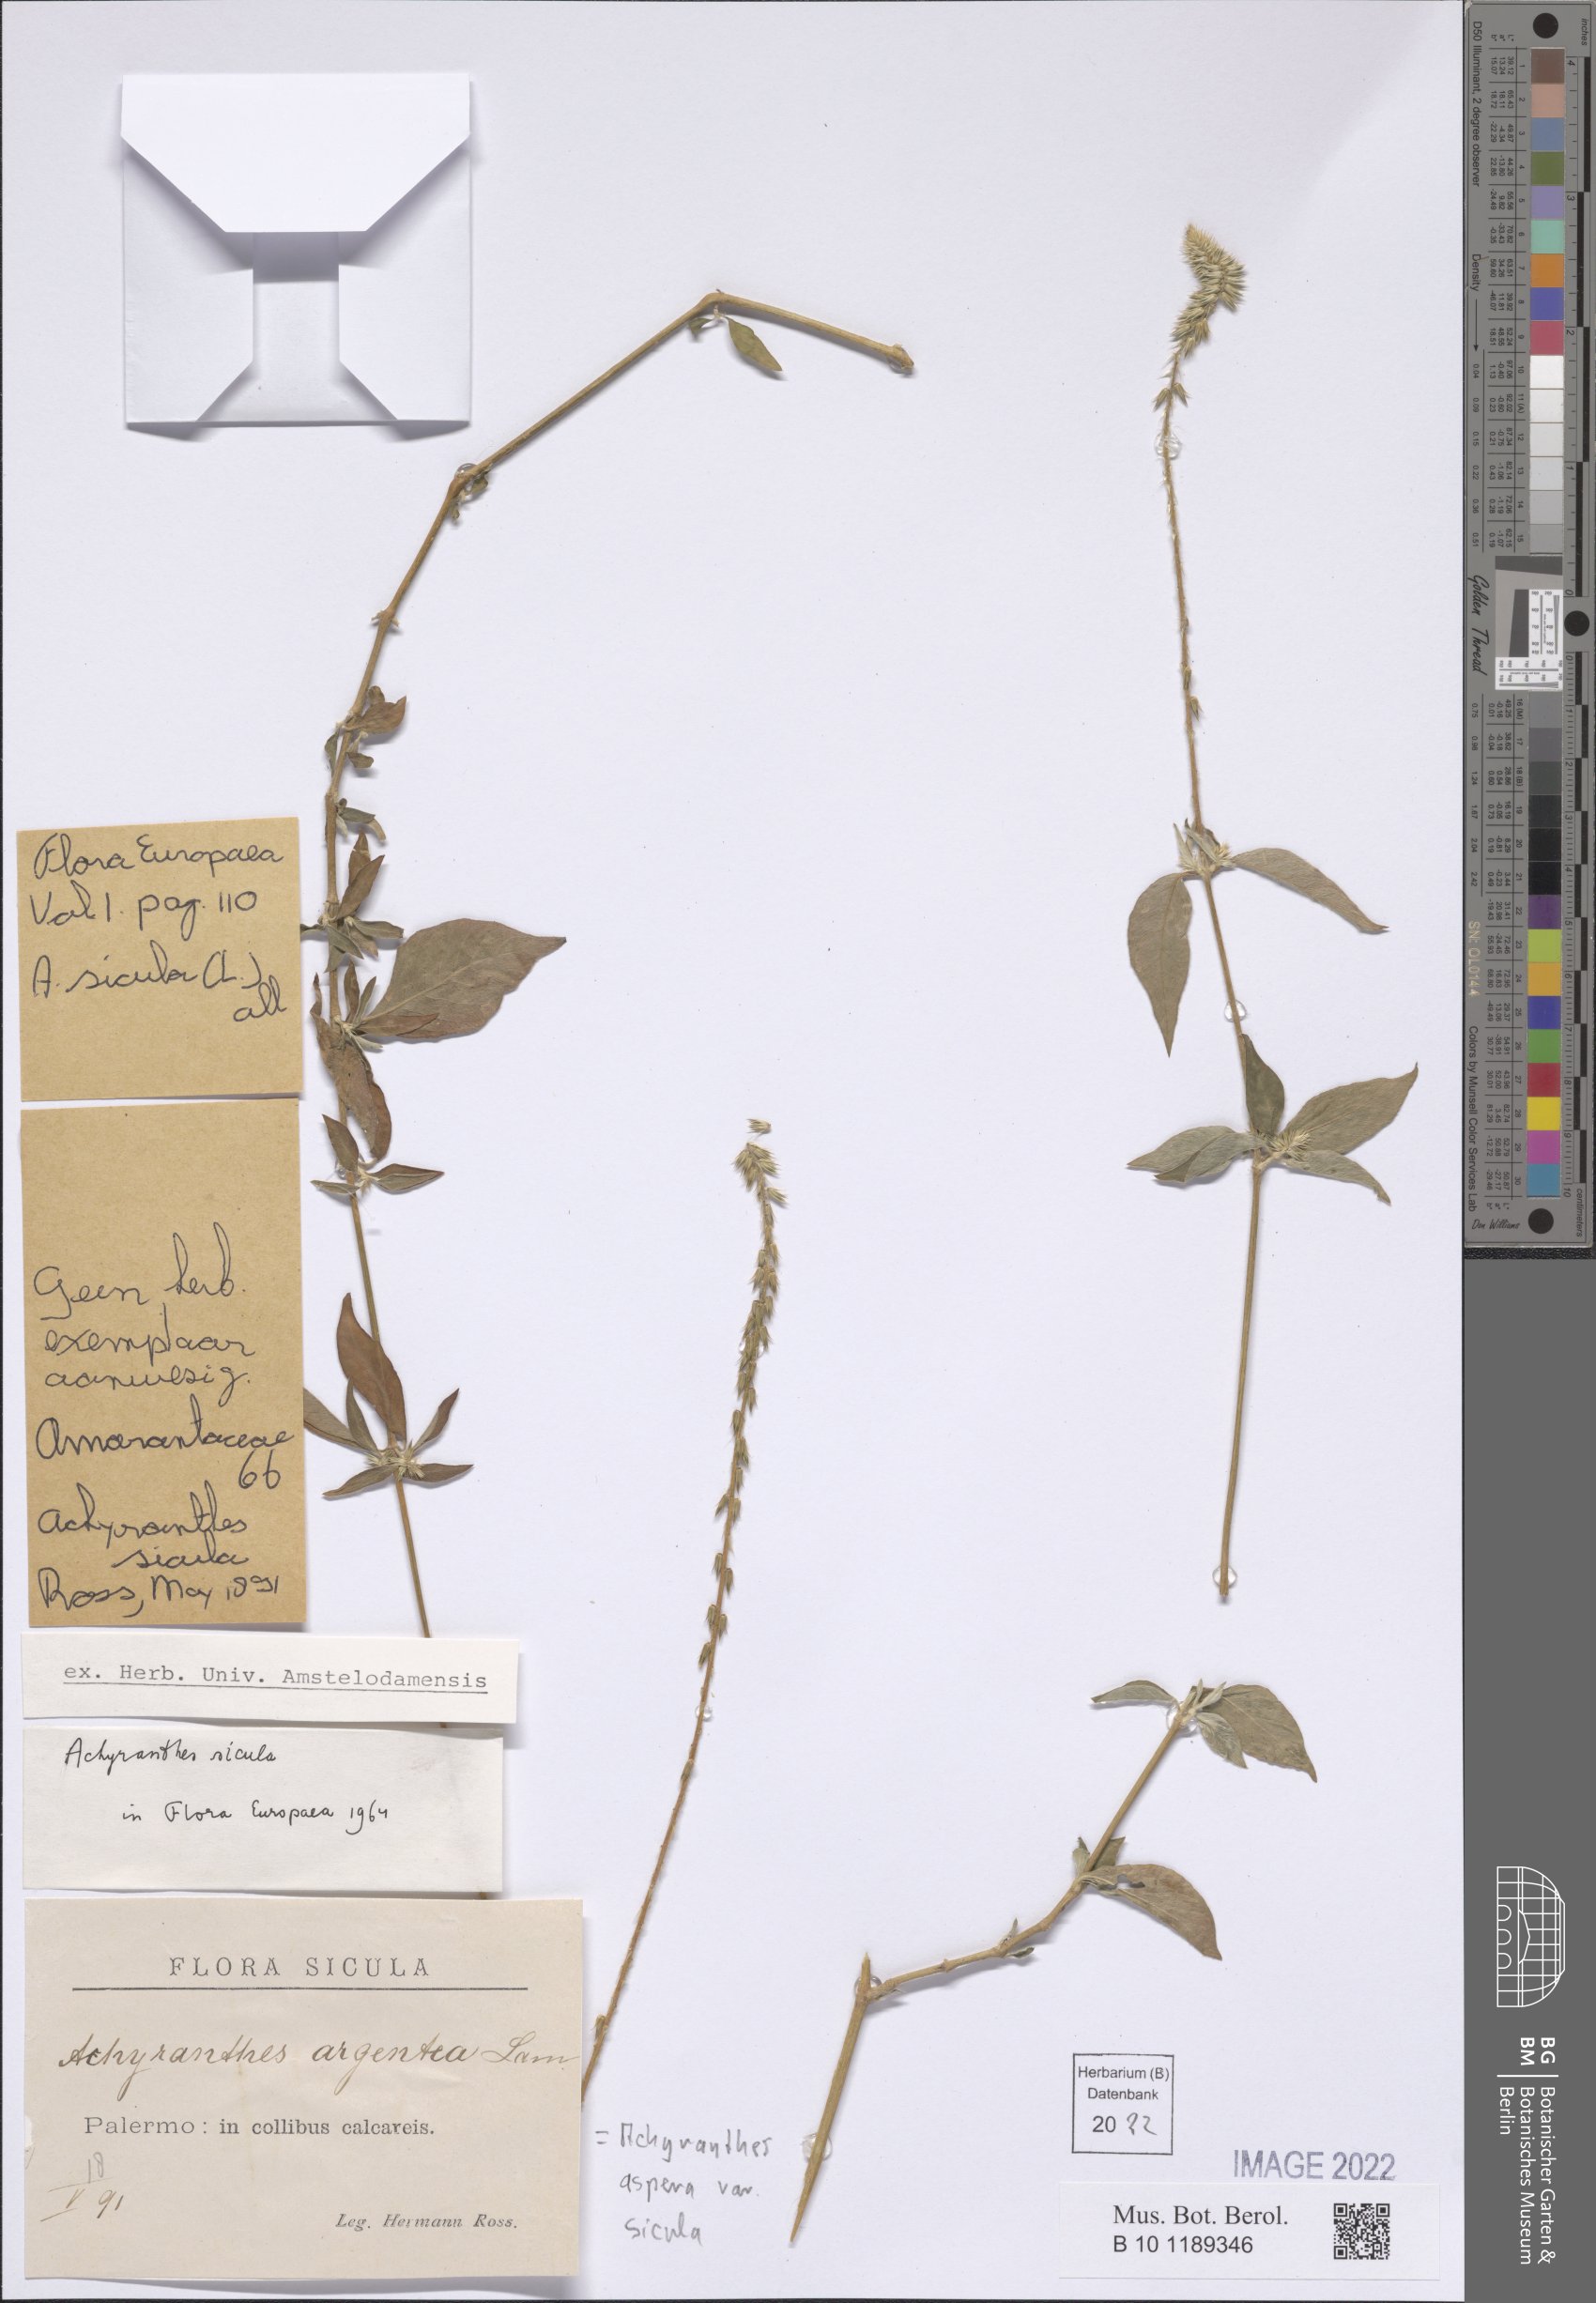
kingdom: Plantae
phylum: Tracheophyta
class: Magnoliopsida
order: Caryophyllales
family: Amaranthaceae
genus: Achyranthes
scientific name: Achyranthes sicula
